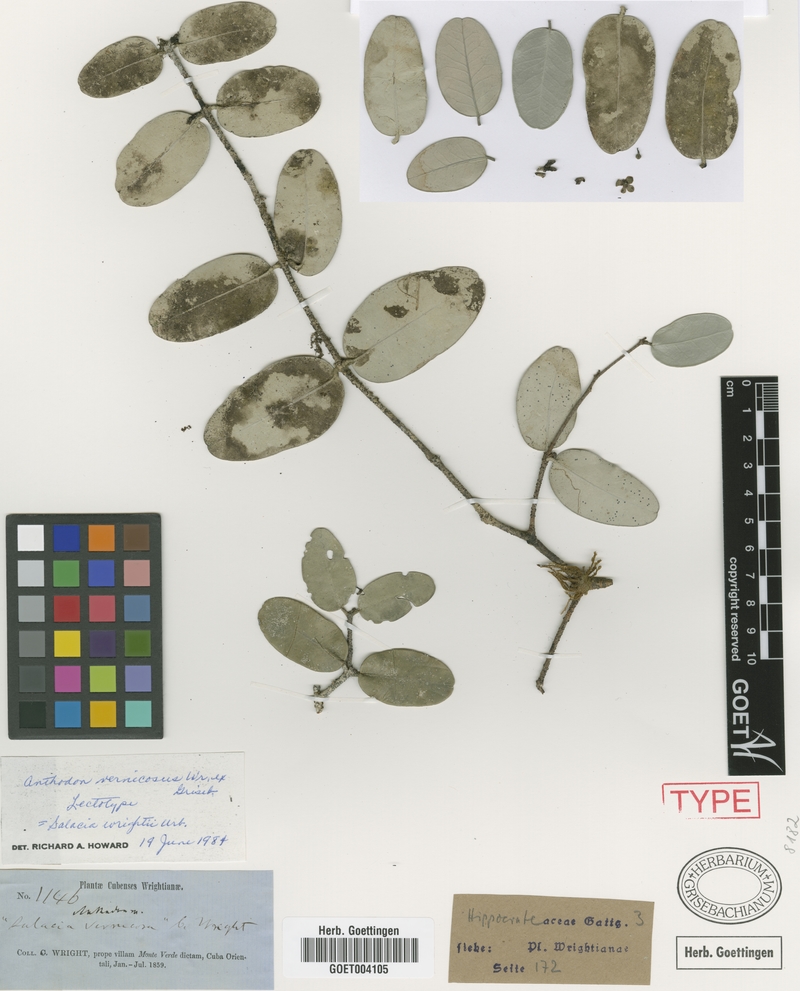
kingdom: Plantae
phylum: Tracheophyta
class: Magnoliopsida
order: Celastrales
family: Celastraceae
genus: Salacia
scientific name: Salacia wrightii
